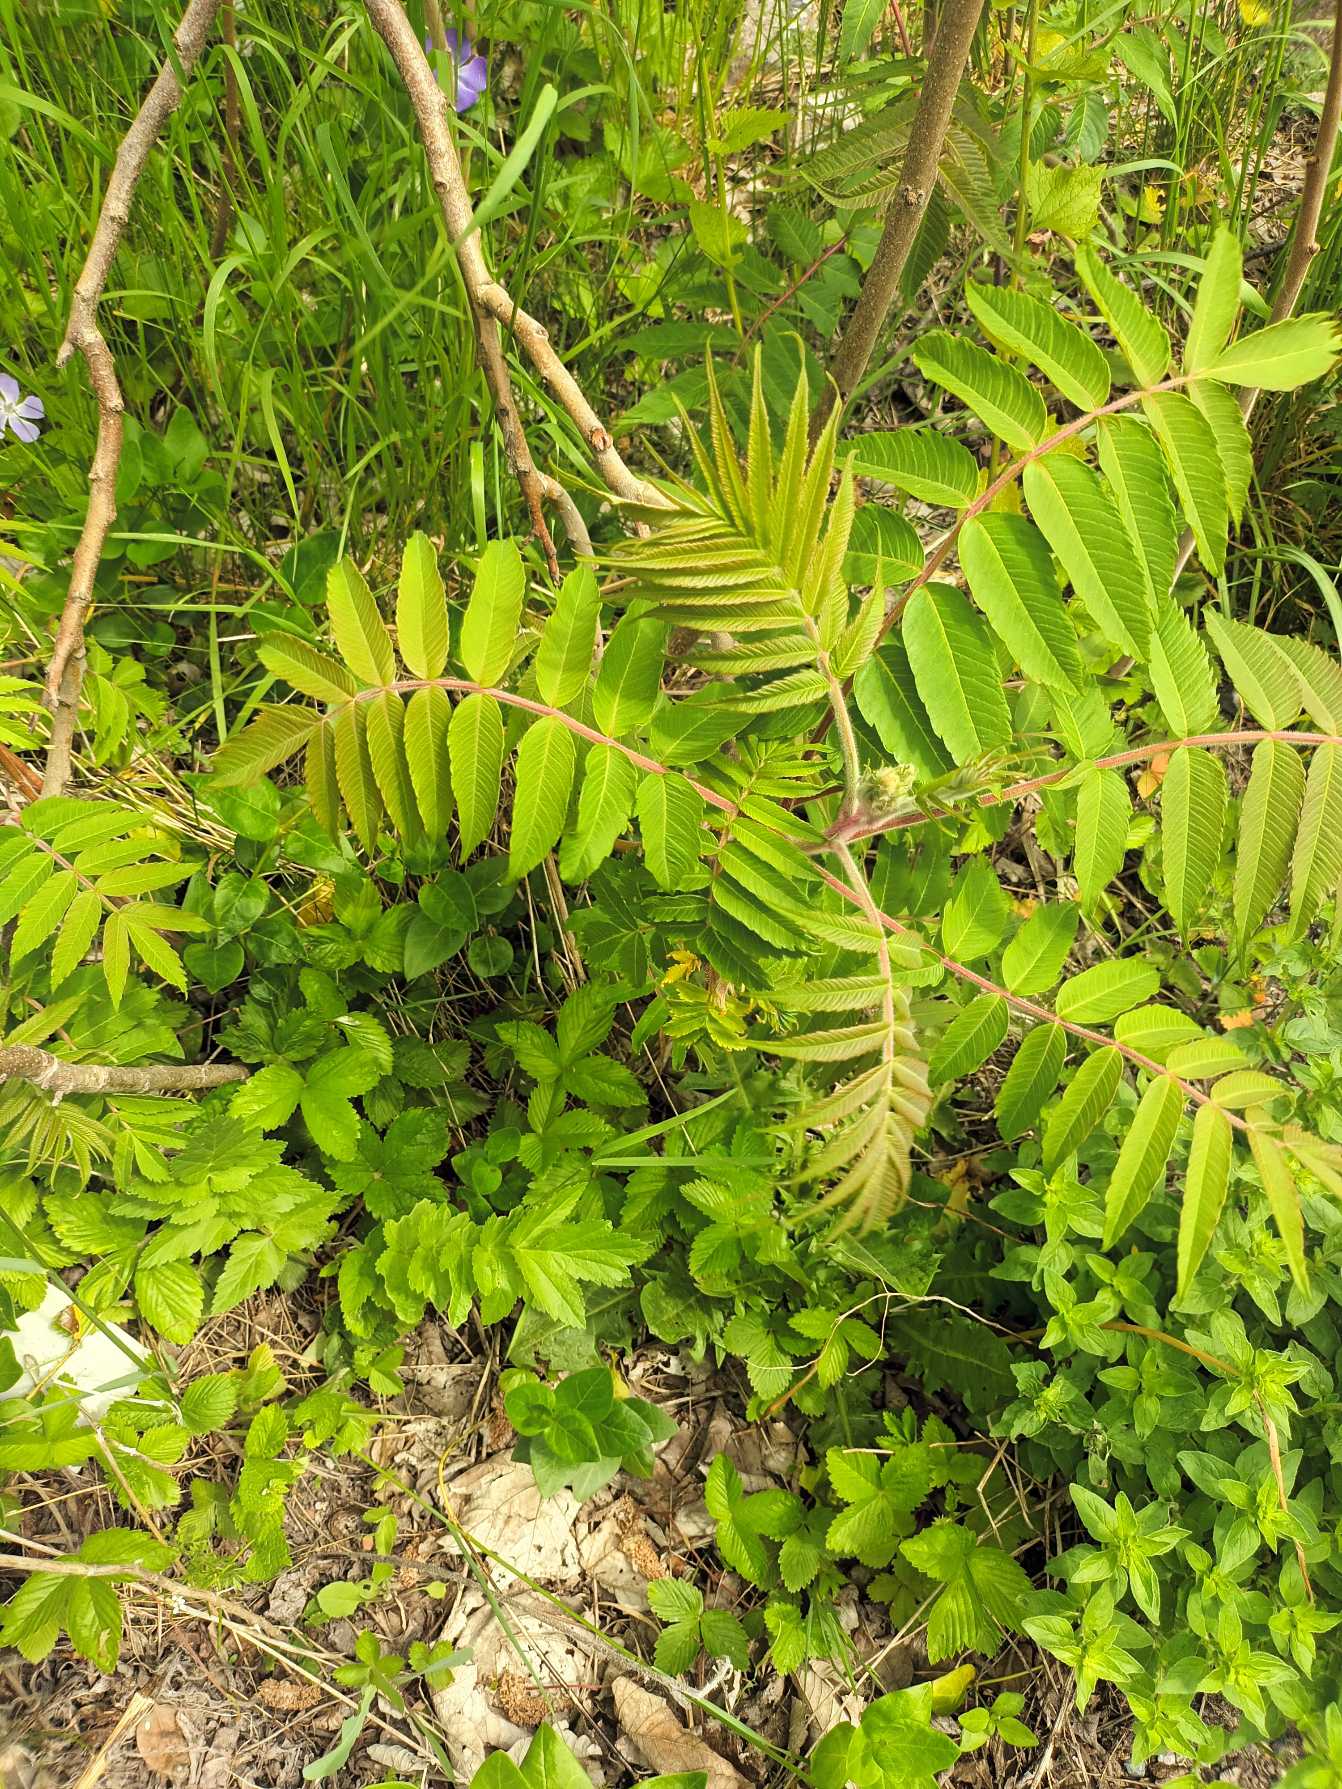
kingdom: Plantae
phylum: Tracheophyta
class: Magnoliopsida
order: Sapindales
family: Anacardiaceae
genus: Rhus
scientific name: Rhus typhina
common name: Hjortetaktræ
